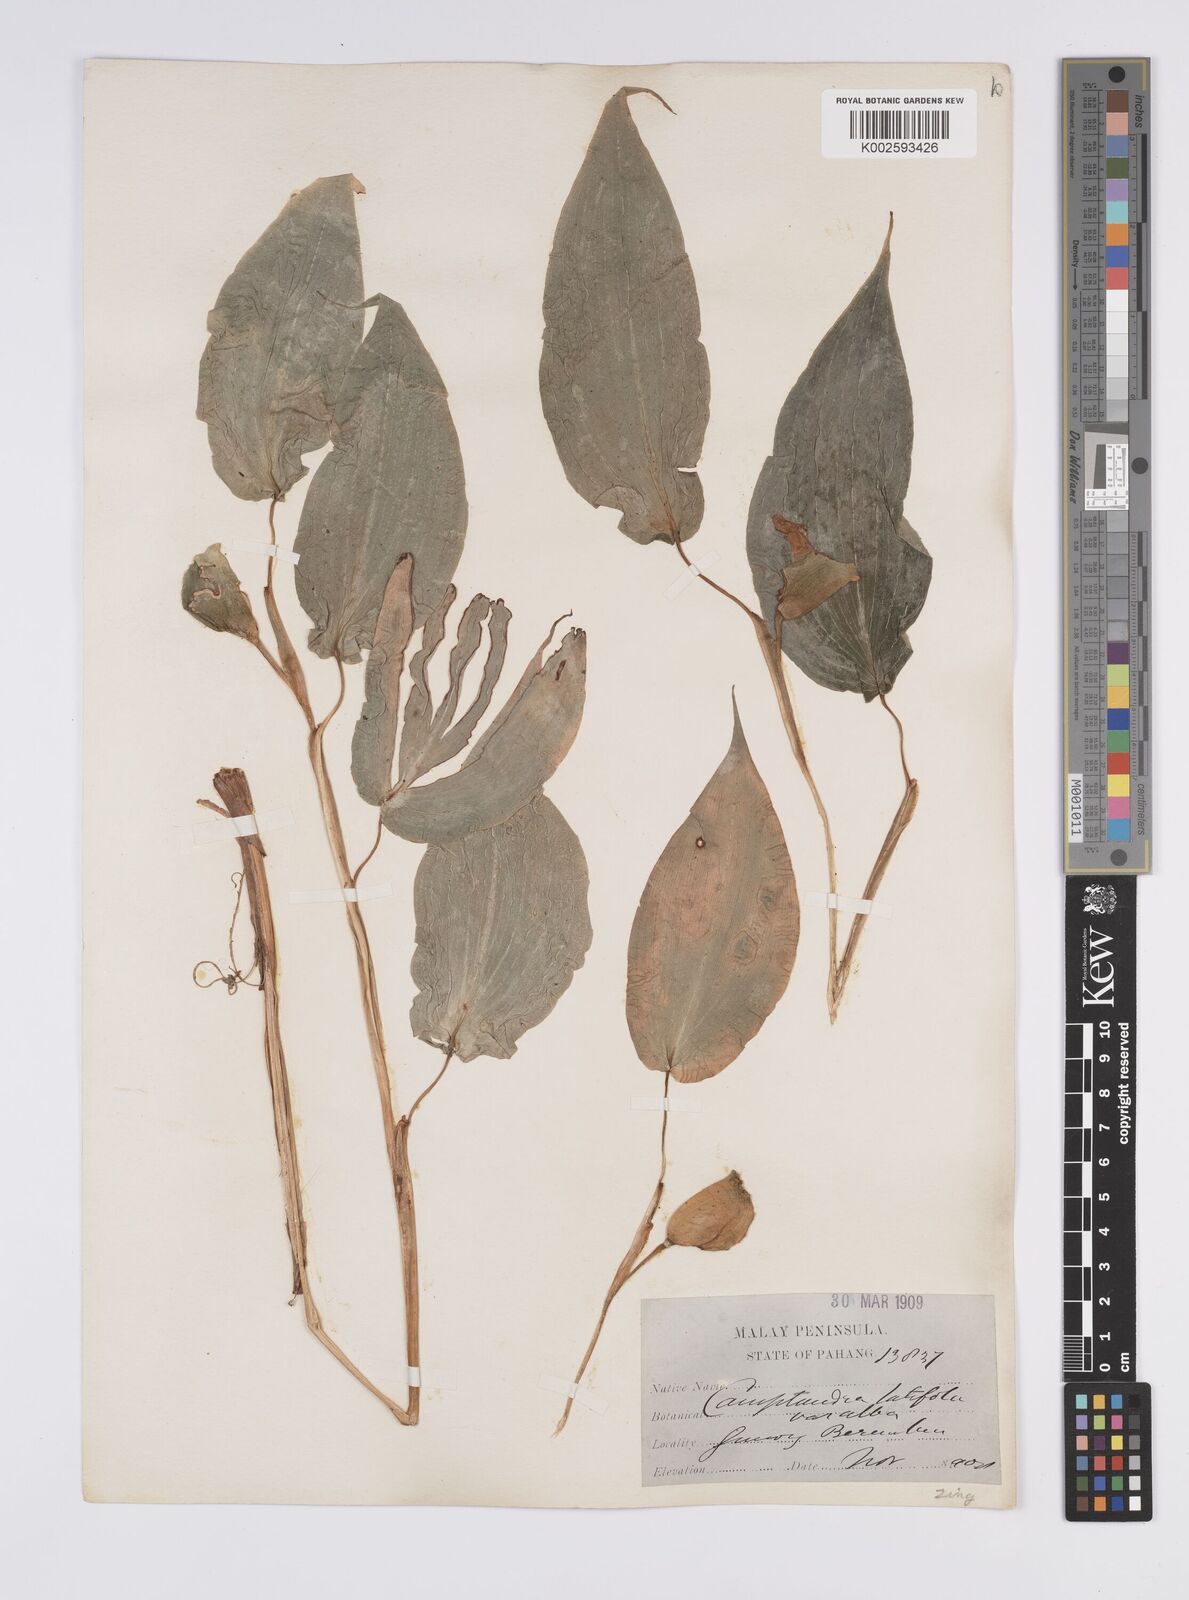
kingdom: Plantae
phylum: Tracheophyta
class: Liliopsida
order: Zingiberales
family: Zingiberaceae
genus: Camptandra
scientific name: Camptandra latifolia
